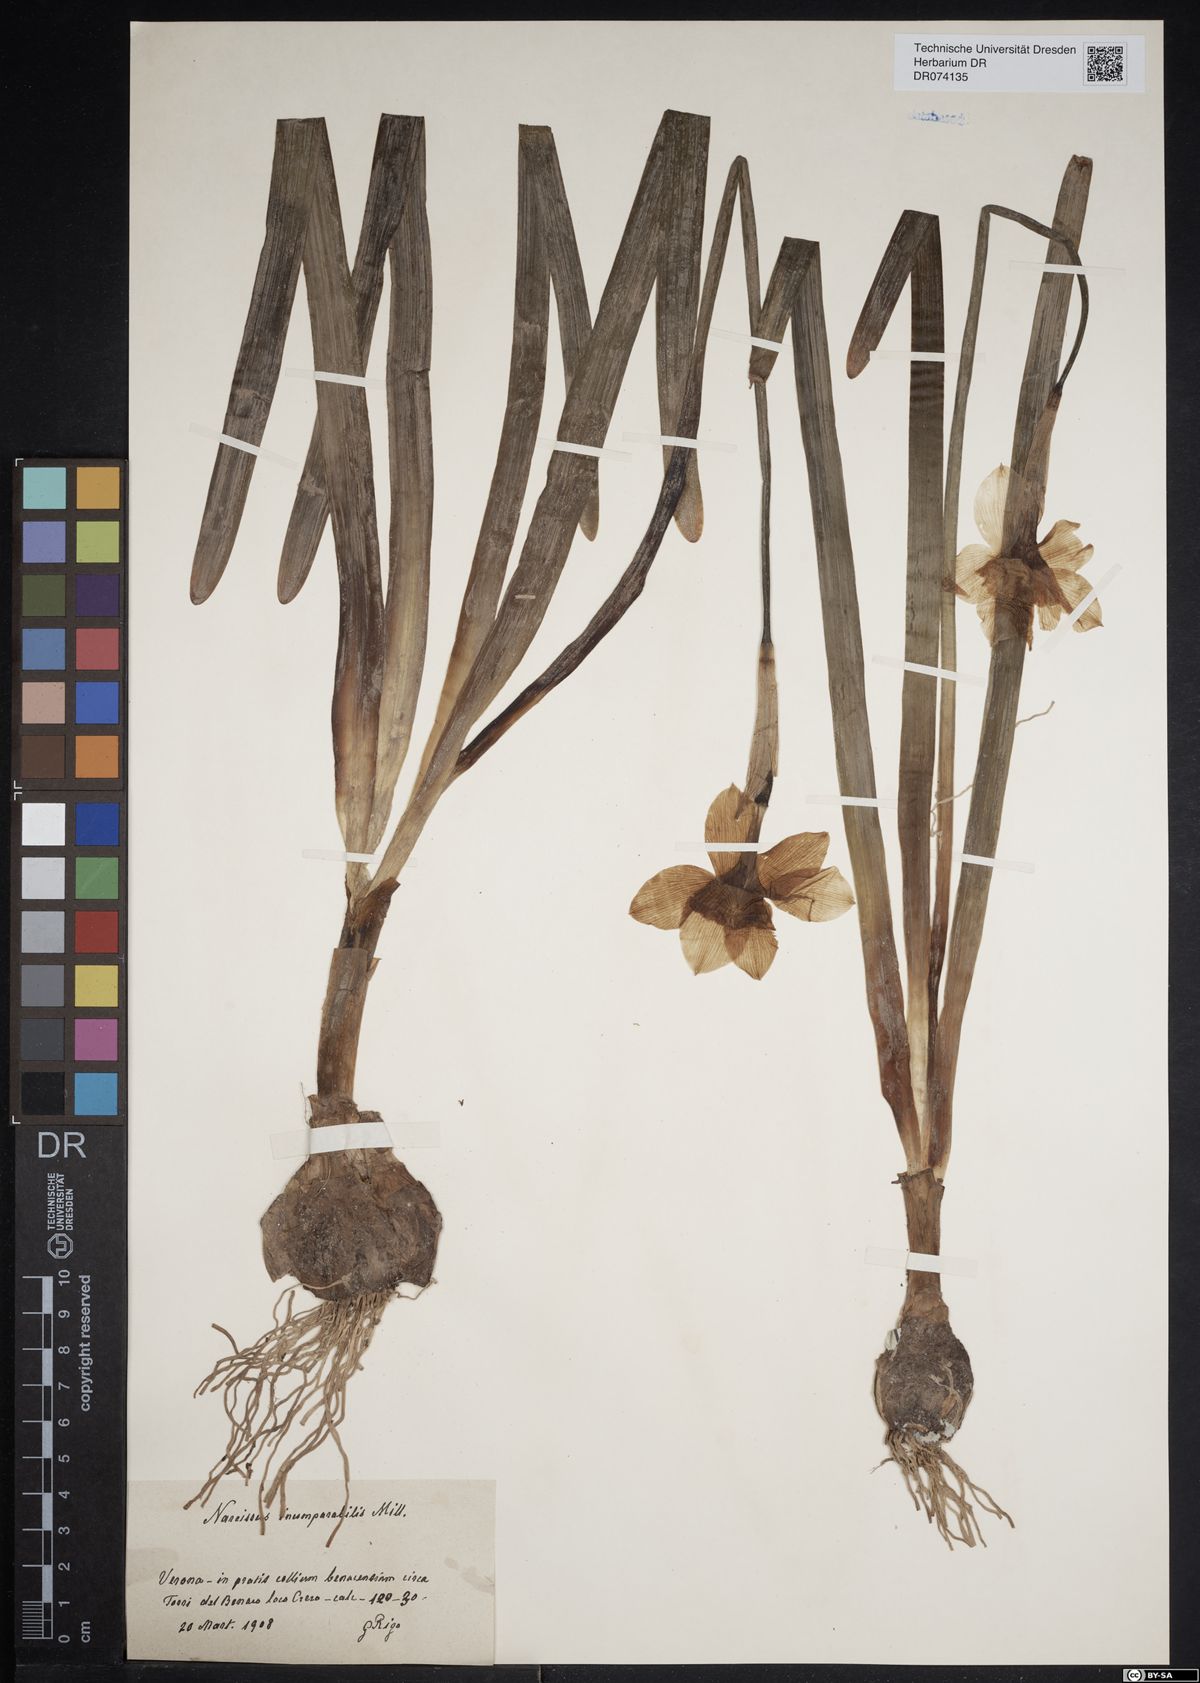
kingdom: Plantae
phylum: Tracheophyta
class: Liliopsida
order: Asparagales
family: Amaryllidaceae
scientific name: Amaryllidaceae
